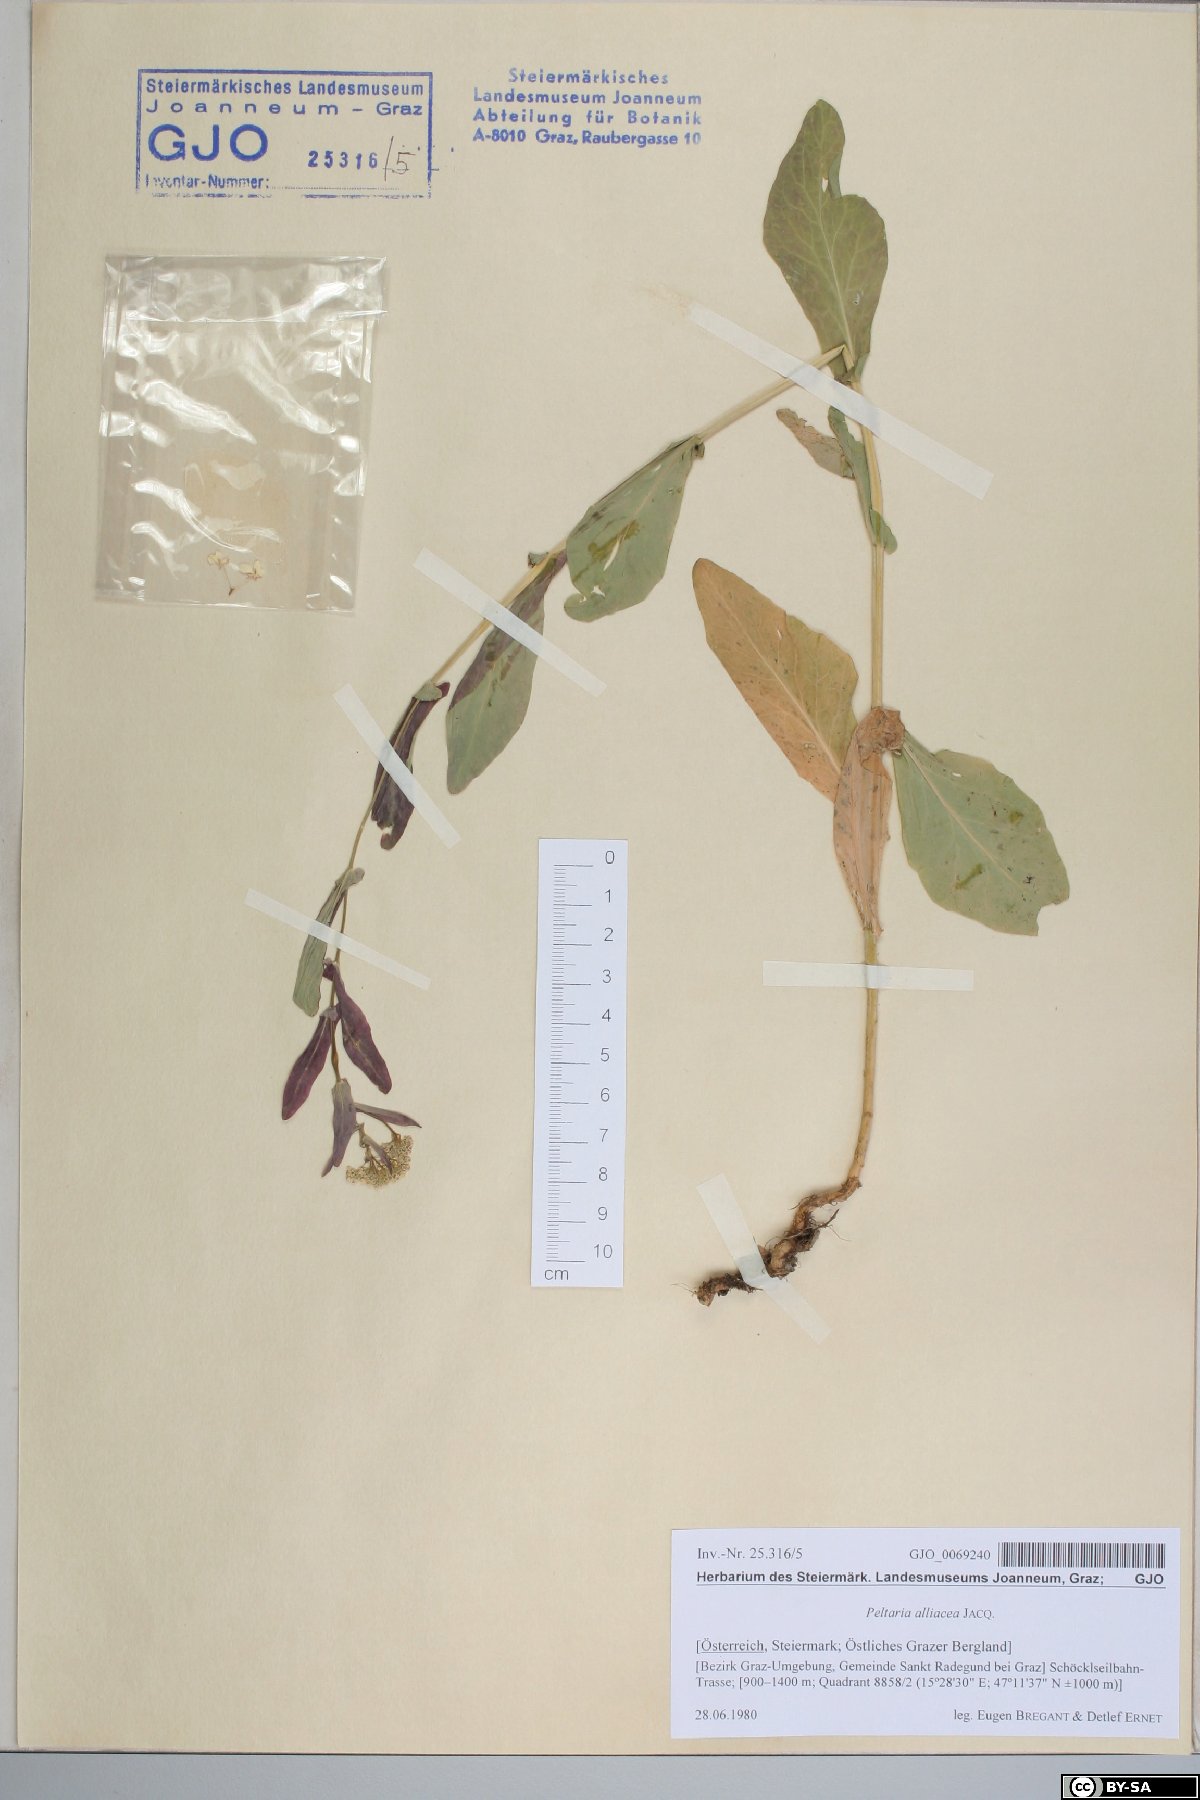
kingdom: Plantae
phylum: Tracheophyta
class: Magnoliopsida
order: Brassicales
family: Brassicaceae
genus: Peltaria
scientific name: Peltaria alliacea
